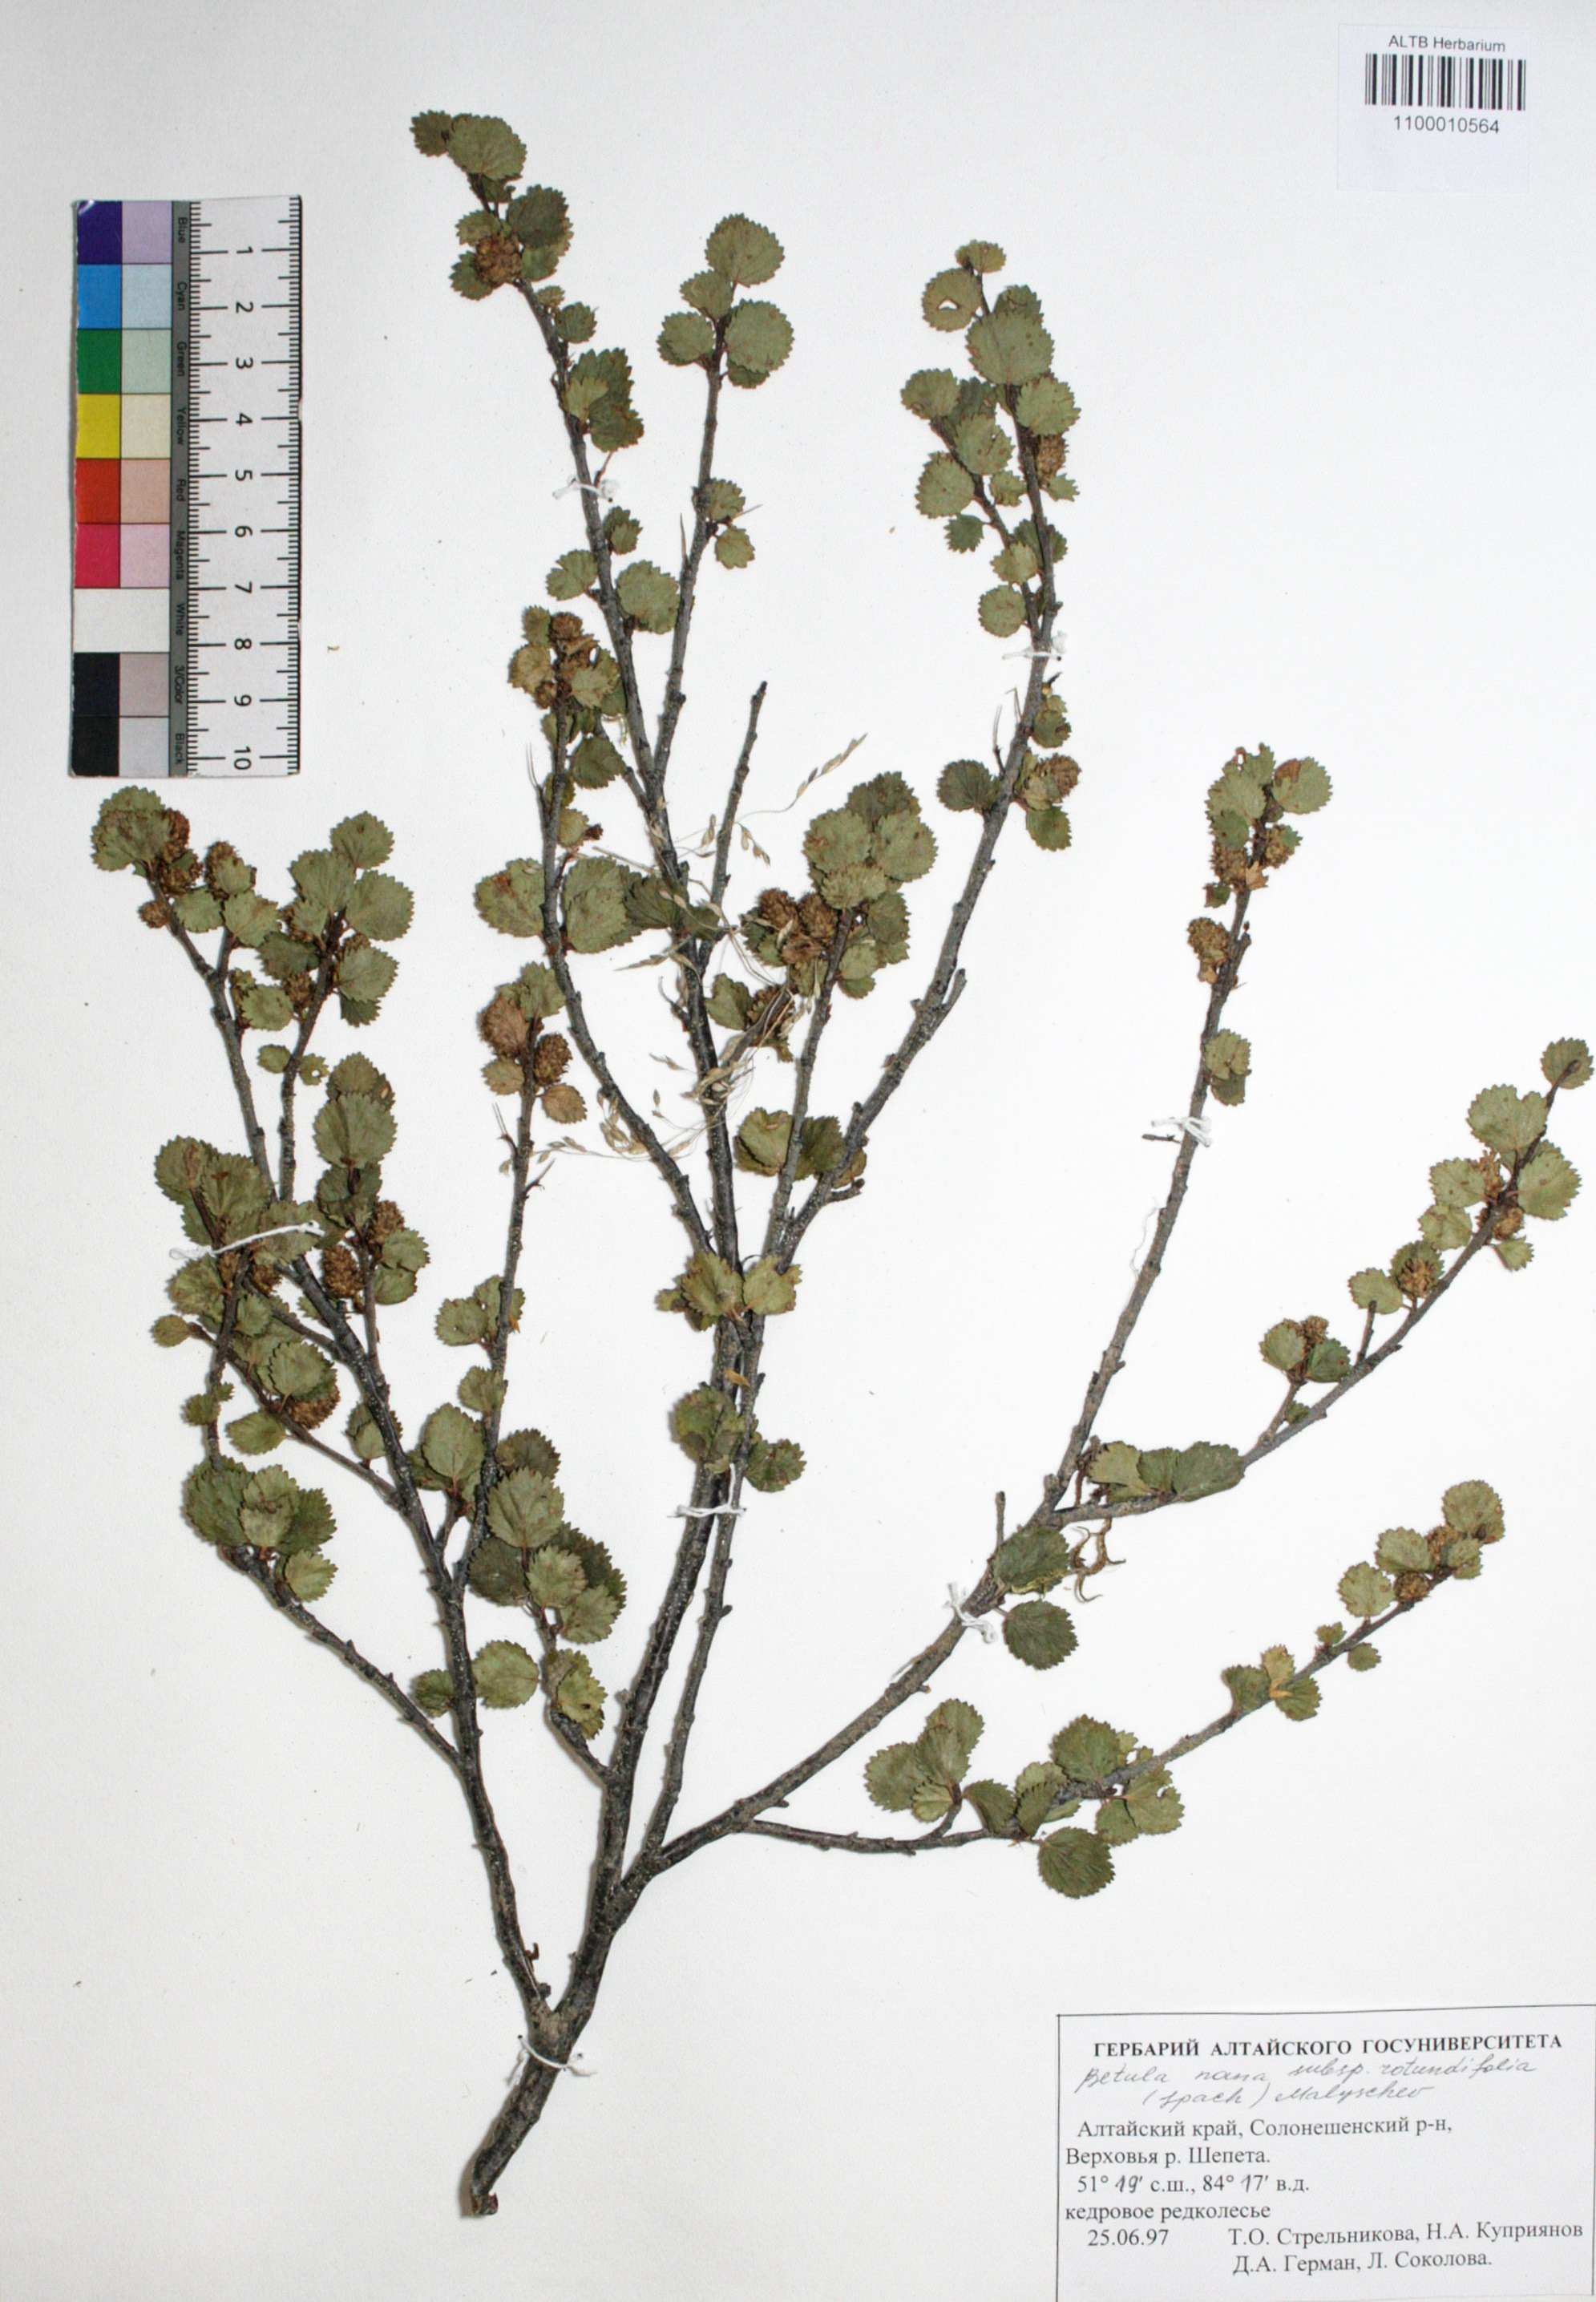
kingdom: Plantae
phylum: Tracheophyta
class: Magnoliopsida
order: Fagales
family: Betulaceae
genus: Betula
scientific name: Betula nana
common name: Arctic dwarf birch
